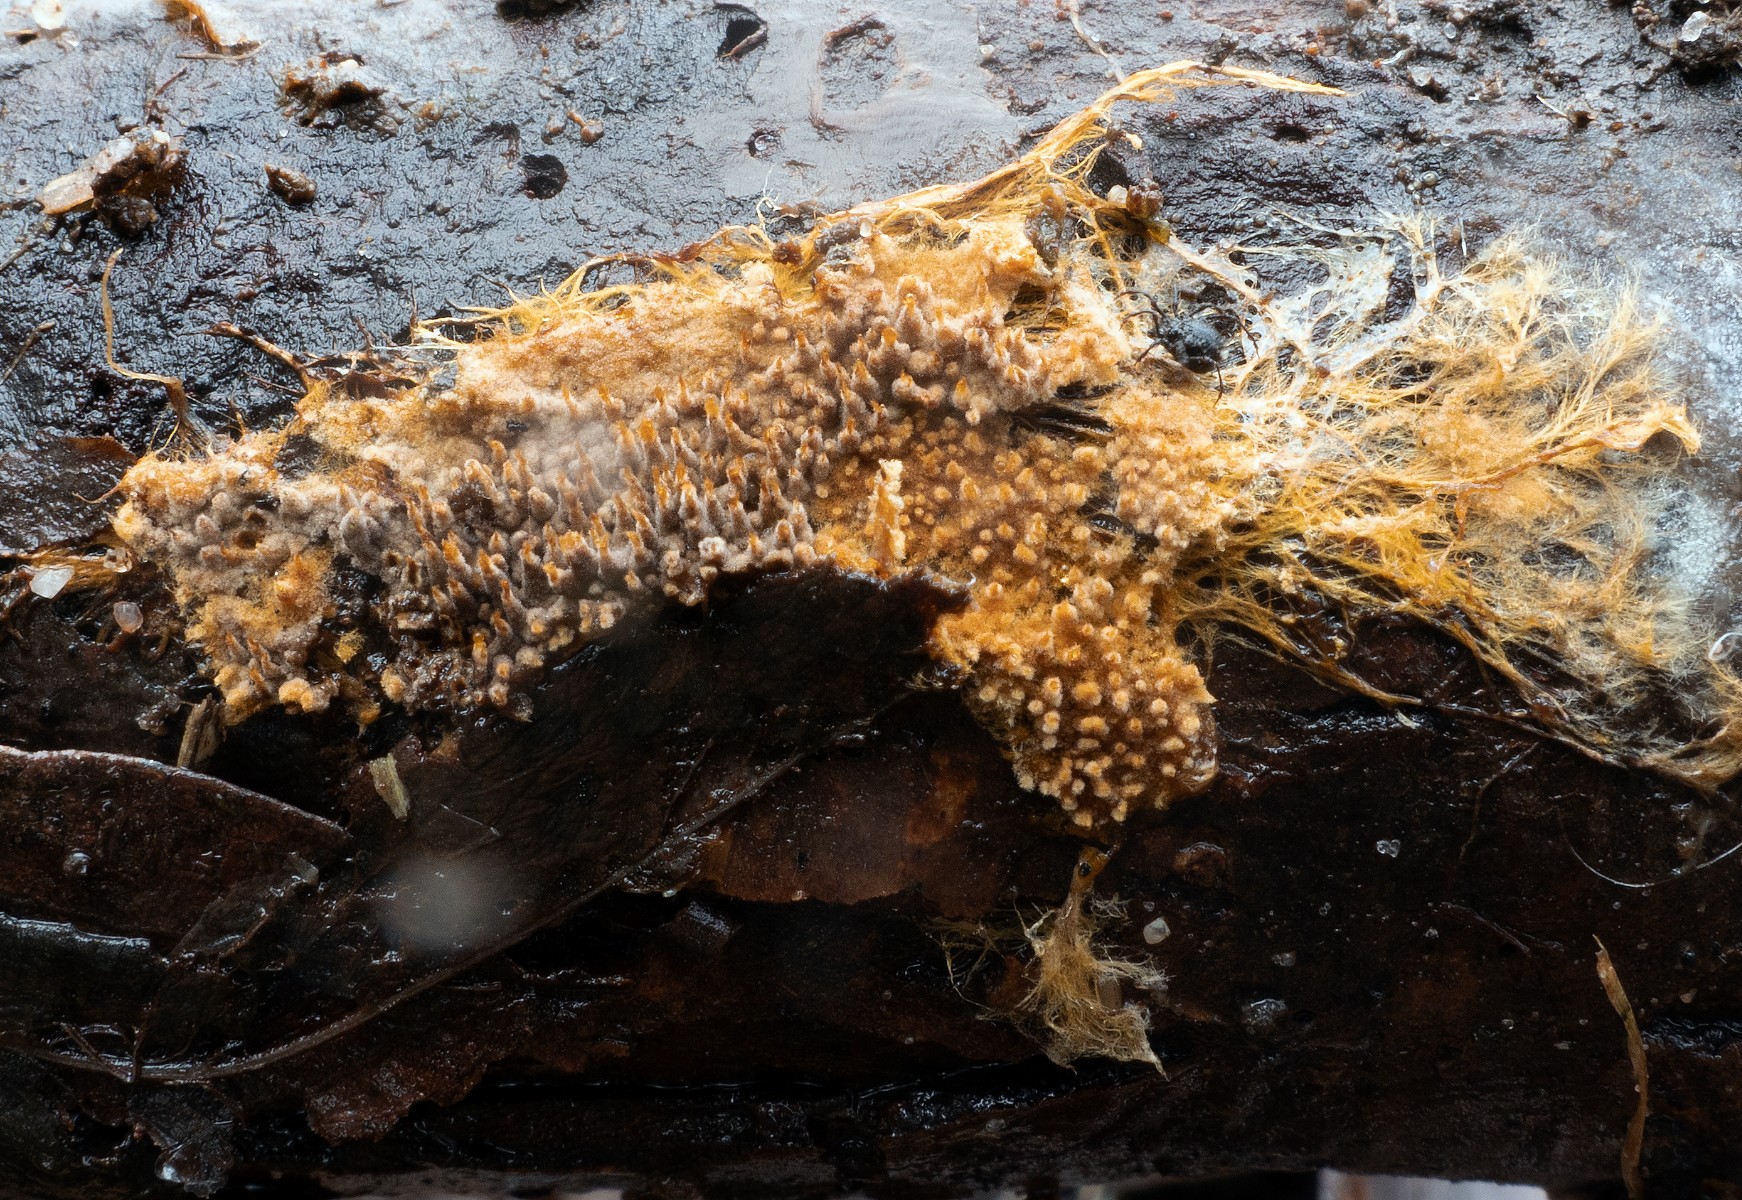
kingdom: Fungi
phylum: Basidiomycota
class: Agaricomycetes
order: Thelephorales
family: Thelephoraceae
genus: Odontia
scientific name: Odontia ferruginea
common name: pigget frynsehinde
